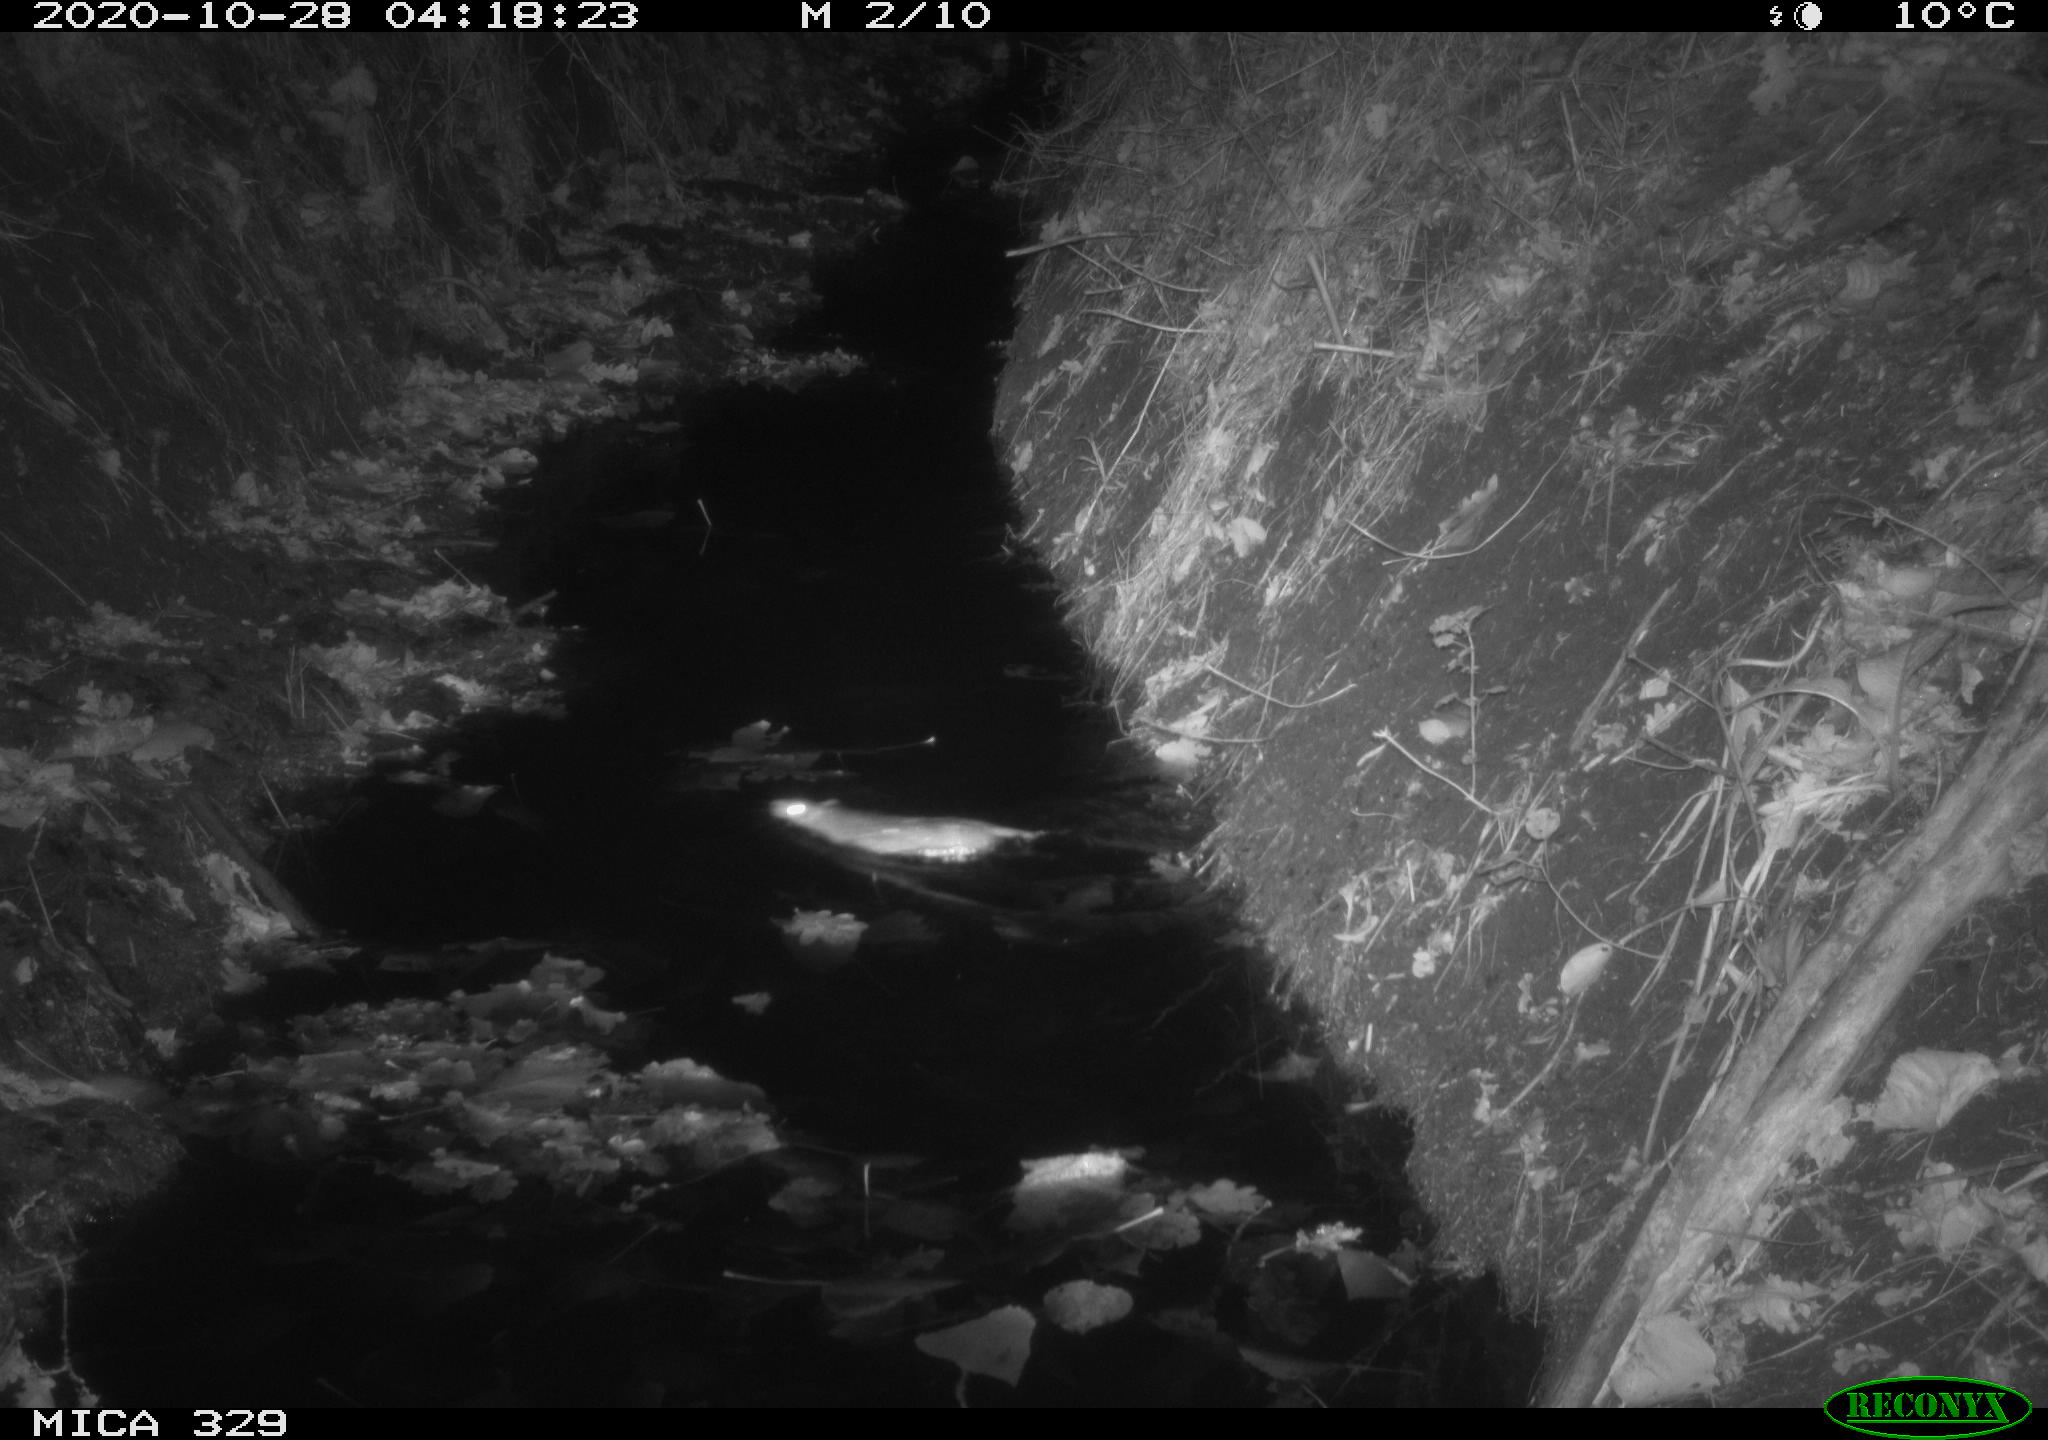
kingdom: Animalia
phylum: Chordata
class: Mammalia
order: Rodentia
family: Muridae
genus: Rattus
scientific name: Rattus norvegicus
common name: Brown rat
